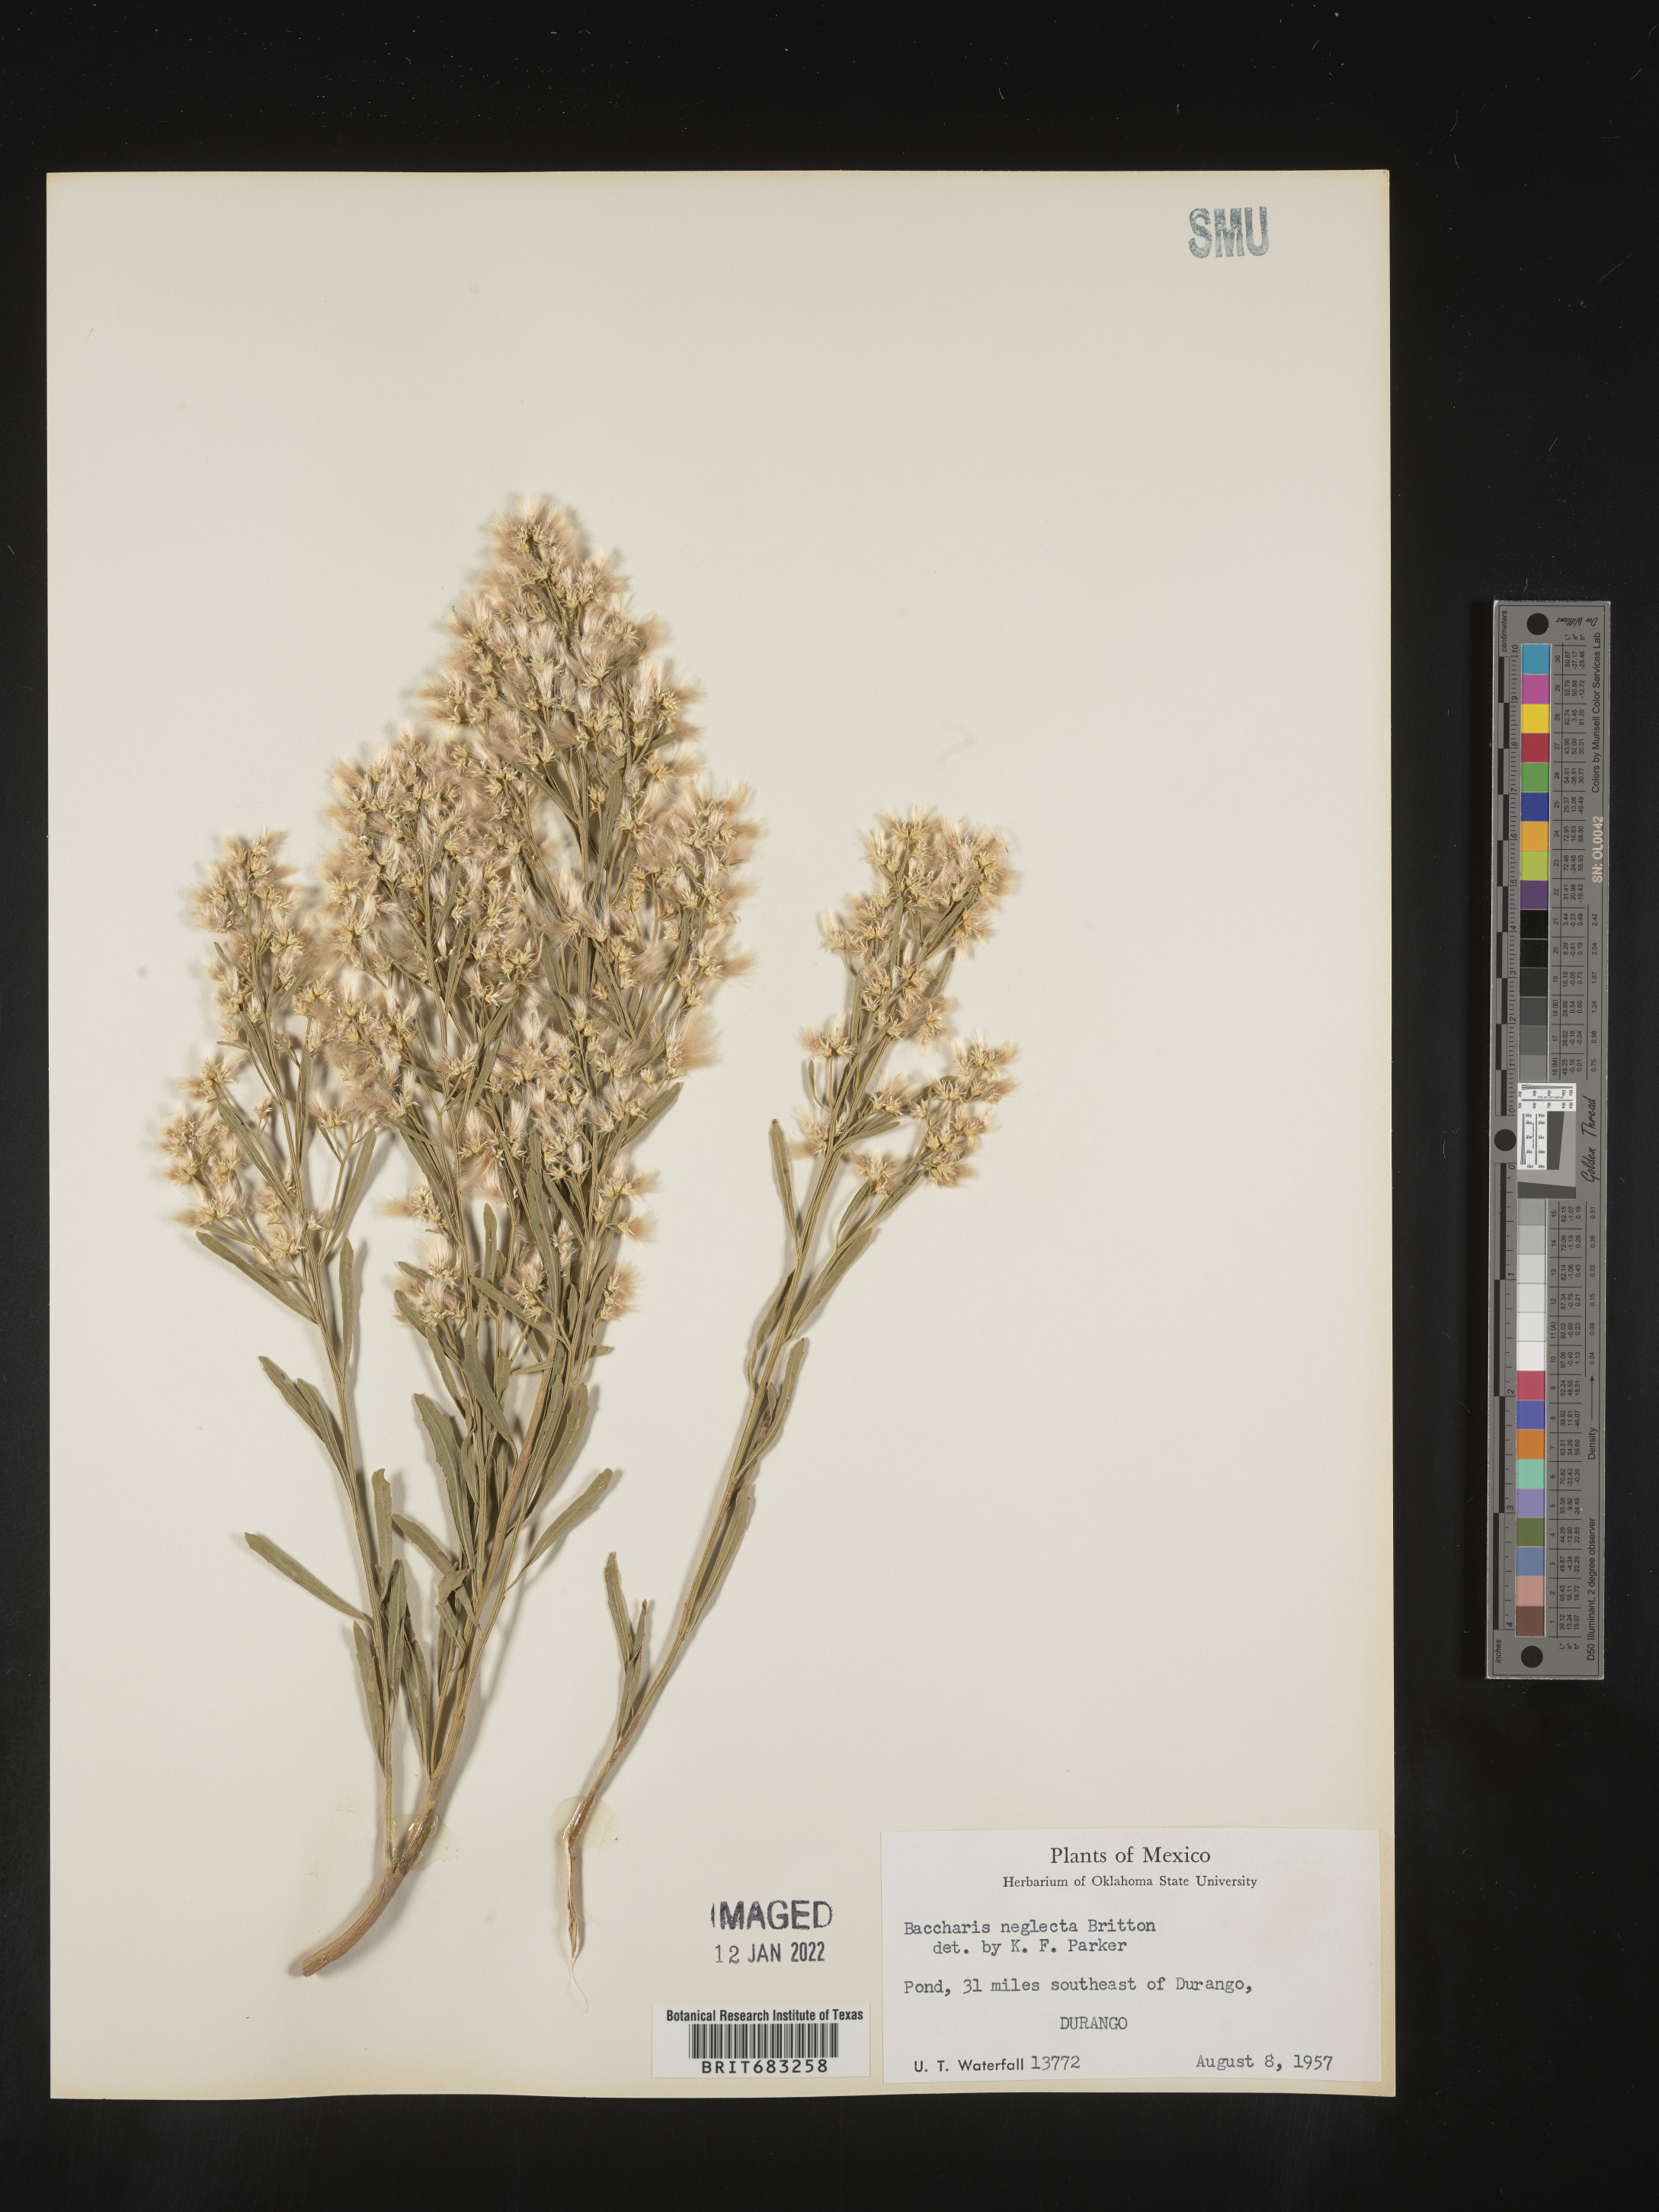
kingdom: Plantae
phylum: Tracheophyta
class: Magnoliopsida
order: Asterales
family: Asteraceae
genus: Baccharis
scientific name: Baccharis neglecta
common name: Roosevelt-weed
